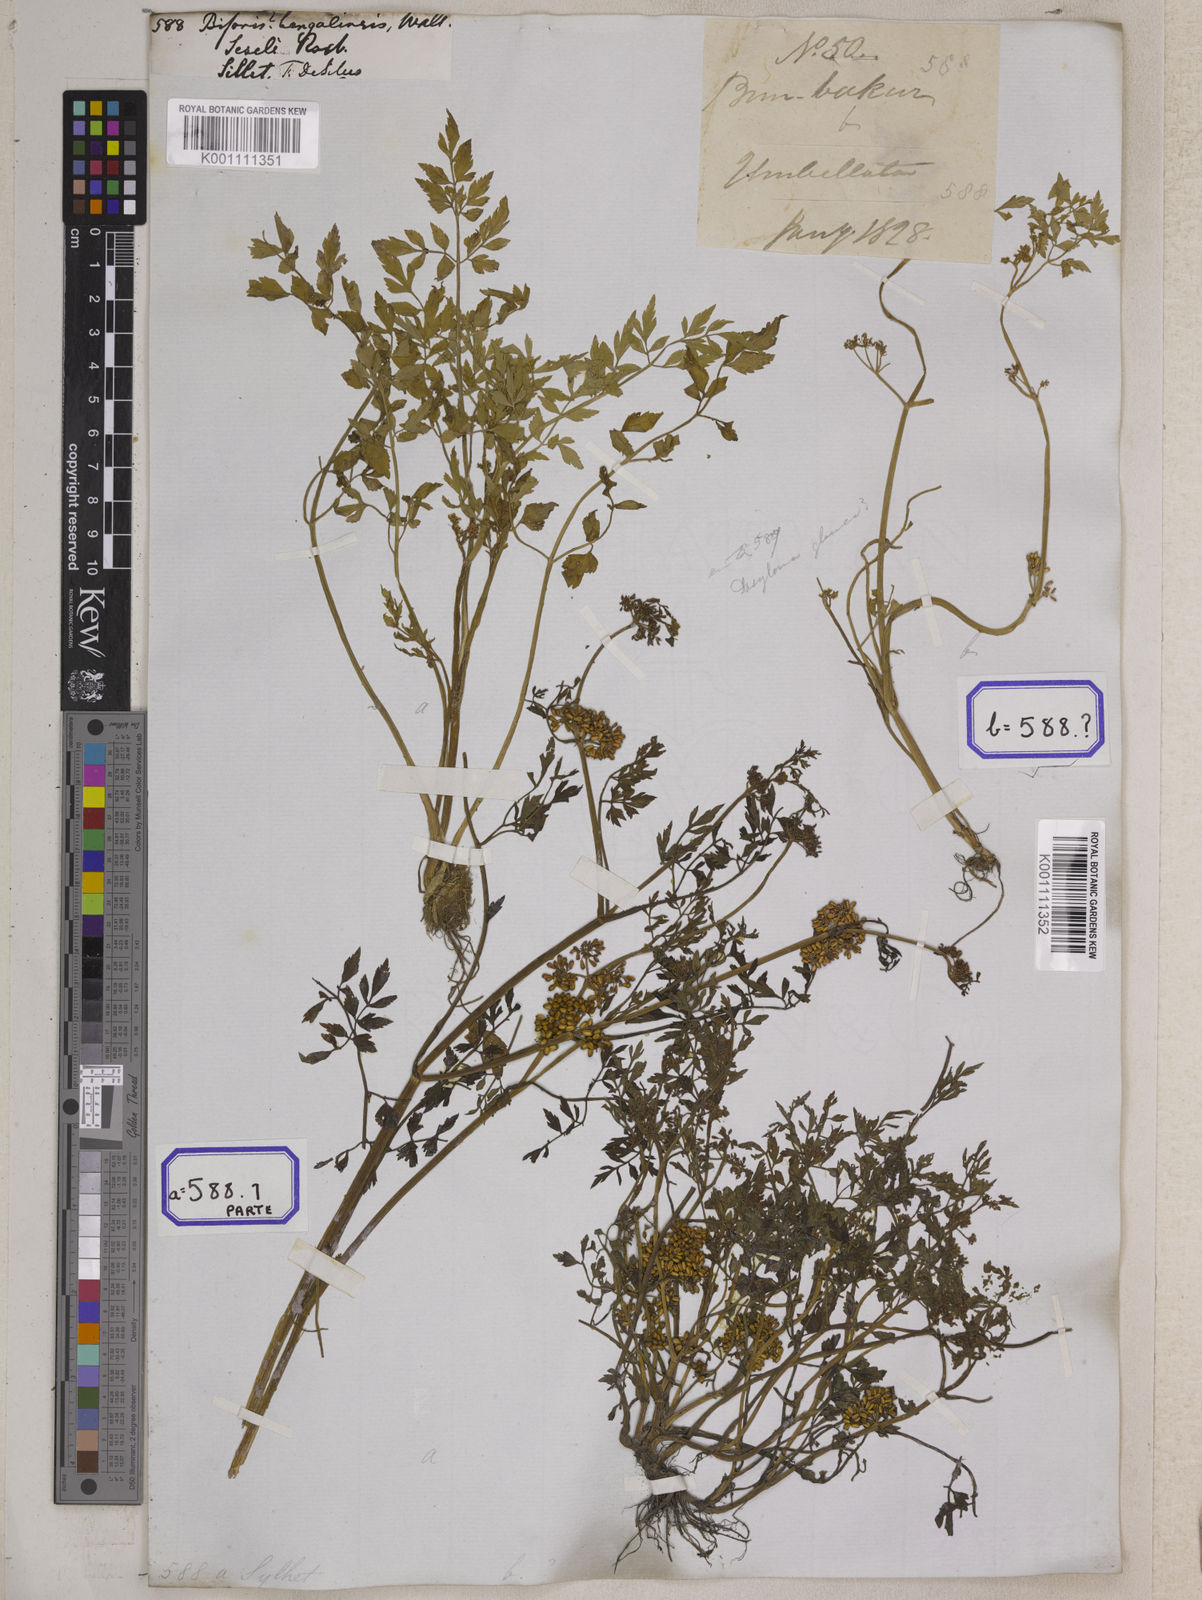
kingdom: Plantae
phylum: Tracheophyta
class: Magnoliopsida
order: Apiales
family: Apiaceae
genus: Bifora
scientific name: Bifora
